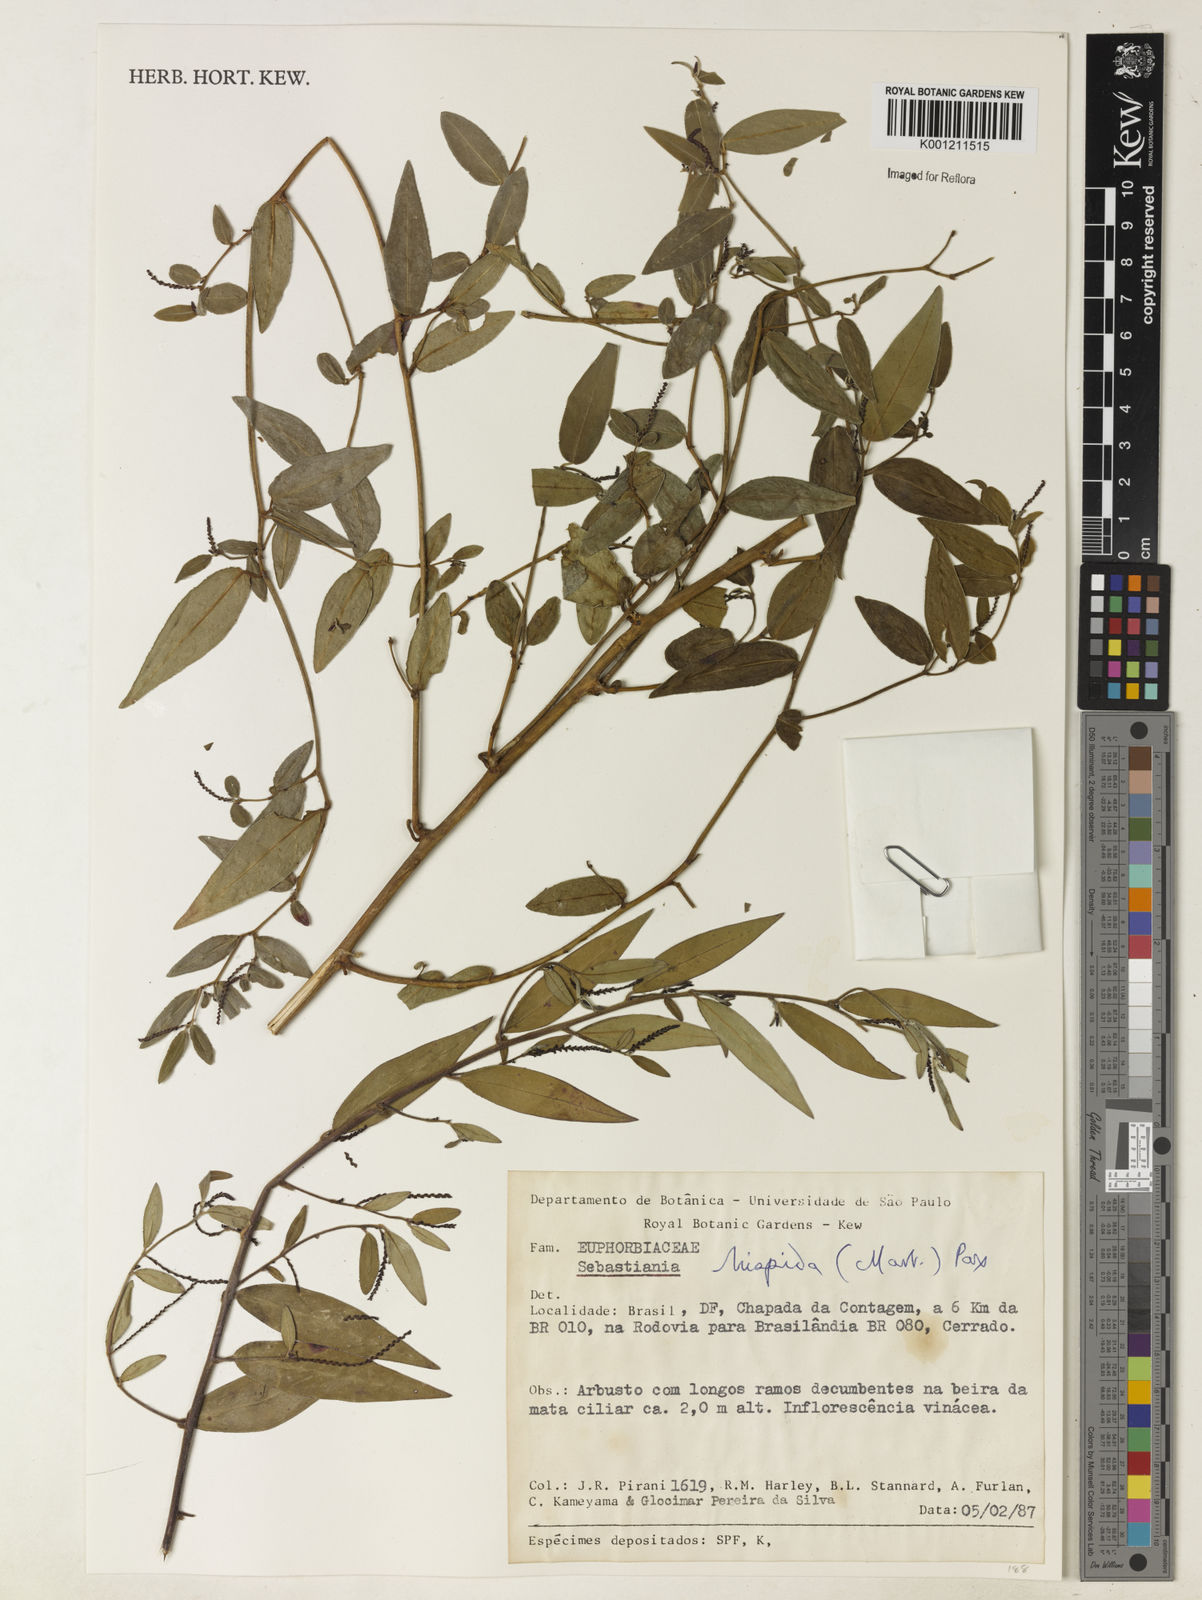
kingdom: Plantae
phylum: Tracheophyta
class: Magnoliopsida
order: Malpighiales
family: Euphorbiaceae
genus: Microstachys
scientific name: Microstachys hispida
